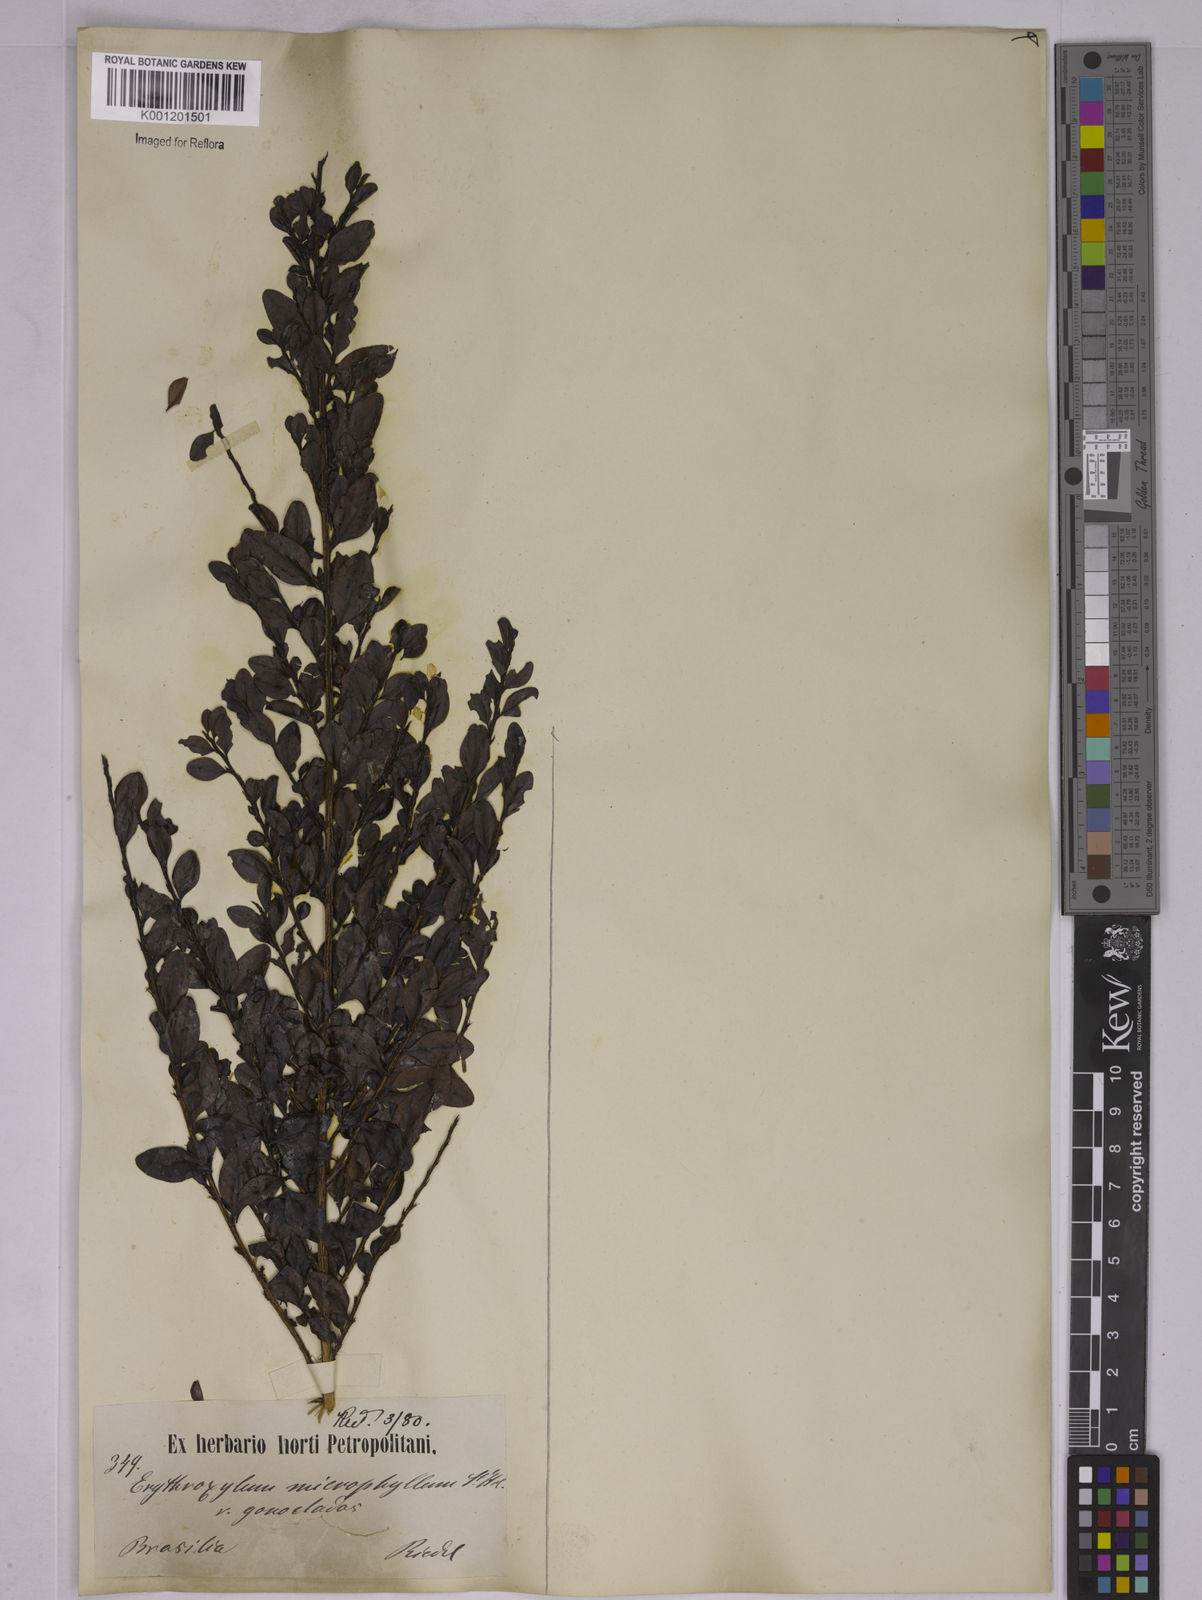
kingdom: Plantae
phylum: Tracheophyta
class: Magnoliopsida
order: Malpighiales
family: Erythroxylaceae
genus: Erythroxylum
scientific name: Erythroxylum
